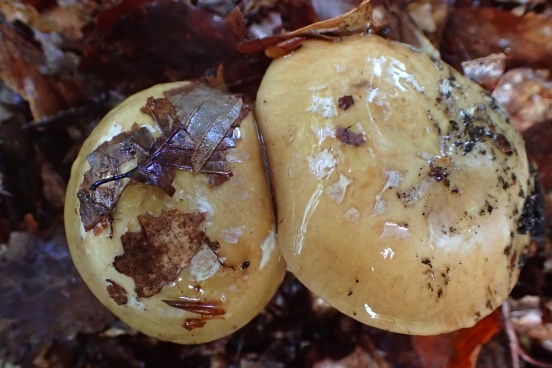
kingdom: Fungi
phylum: Basidiomycota
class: Agaricomycetes
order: Agaricales
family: Cortinariaceae
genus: Cortinarius
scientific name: Cortinarius anserinus
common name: bøge-slørhat
